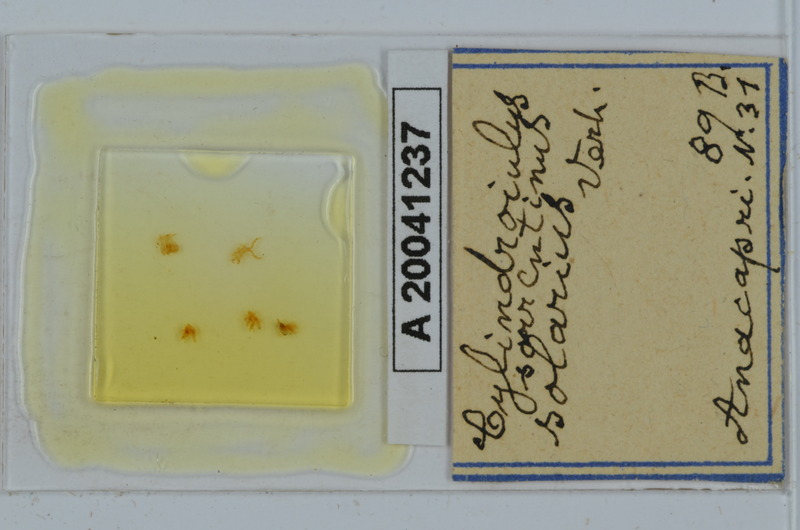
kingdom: Animalia
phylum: Arthropoda
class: Diplopoda
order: Julida
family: Julidae
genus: Cylindroiulus
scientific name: Cylindroiulus sorrentinus
